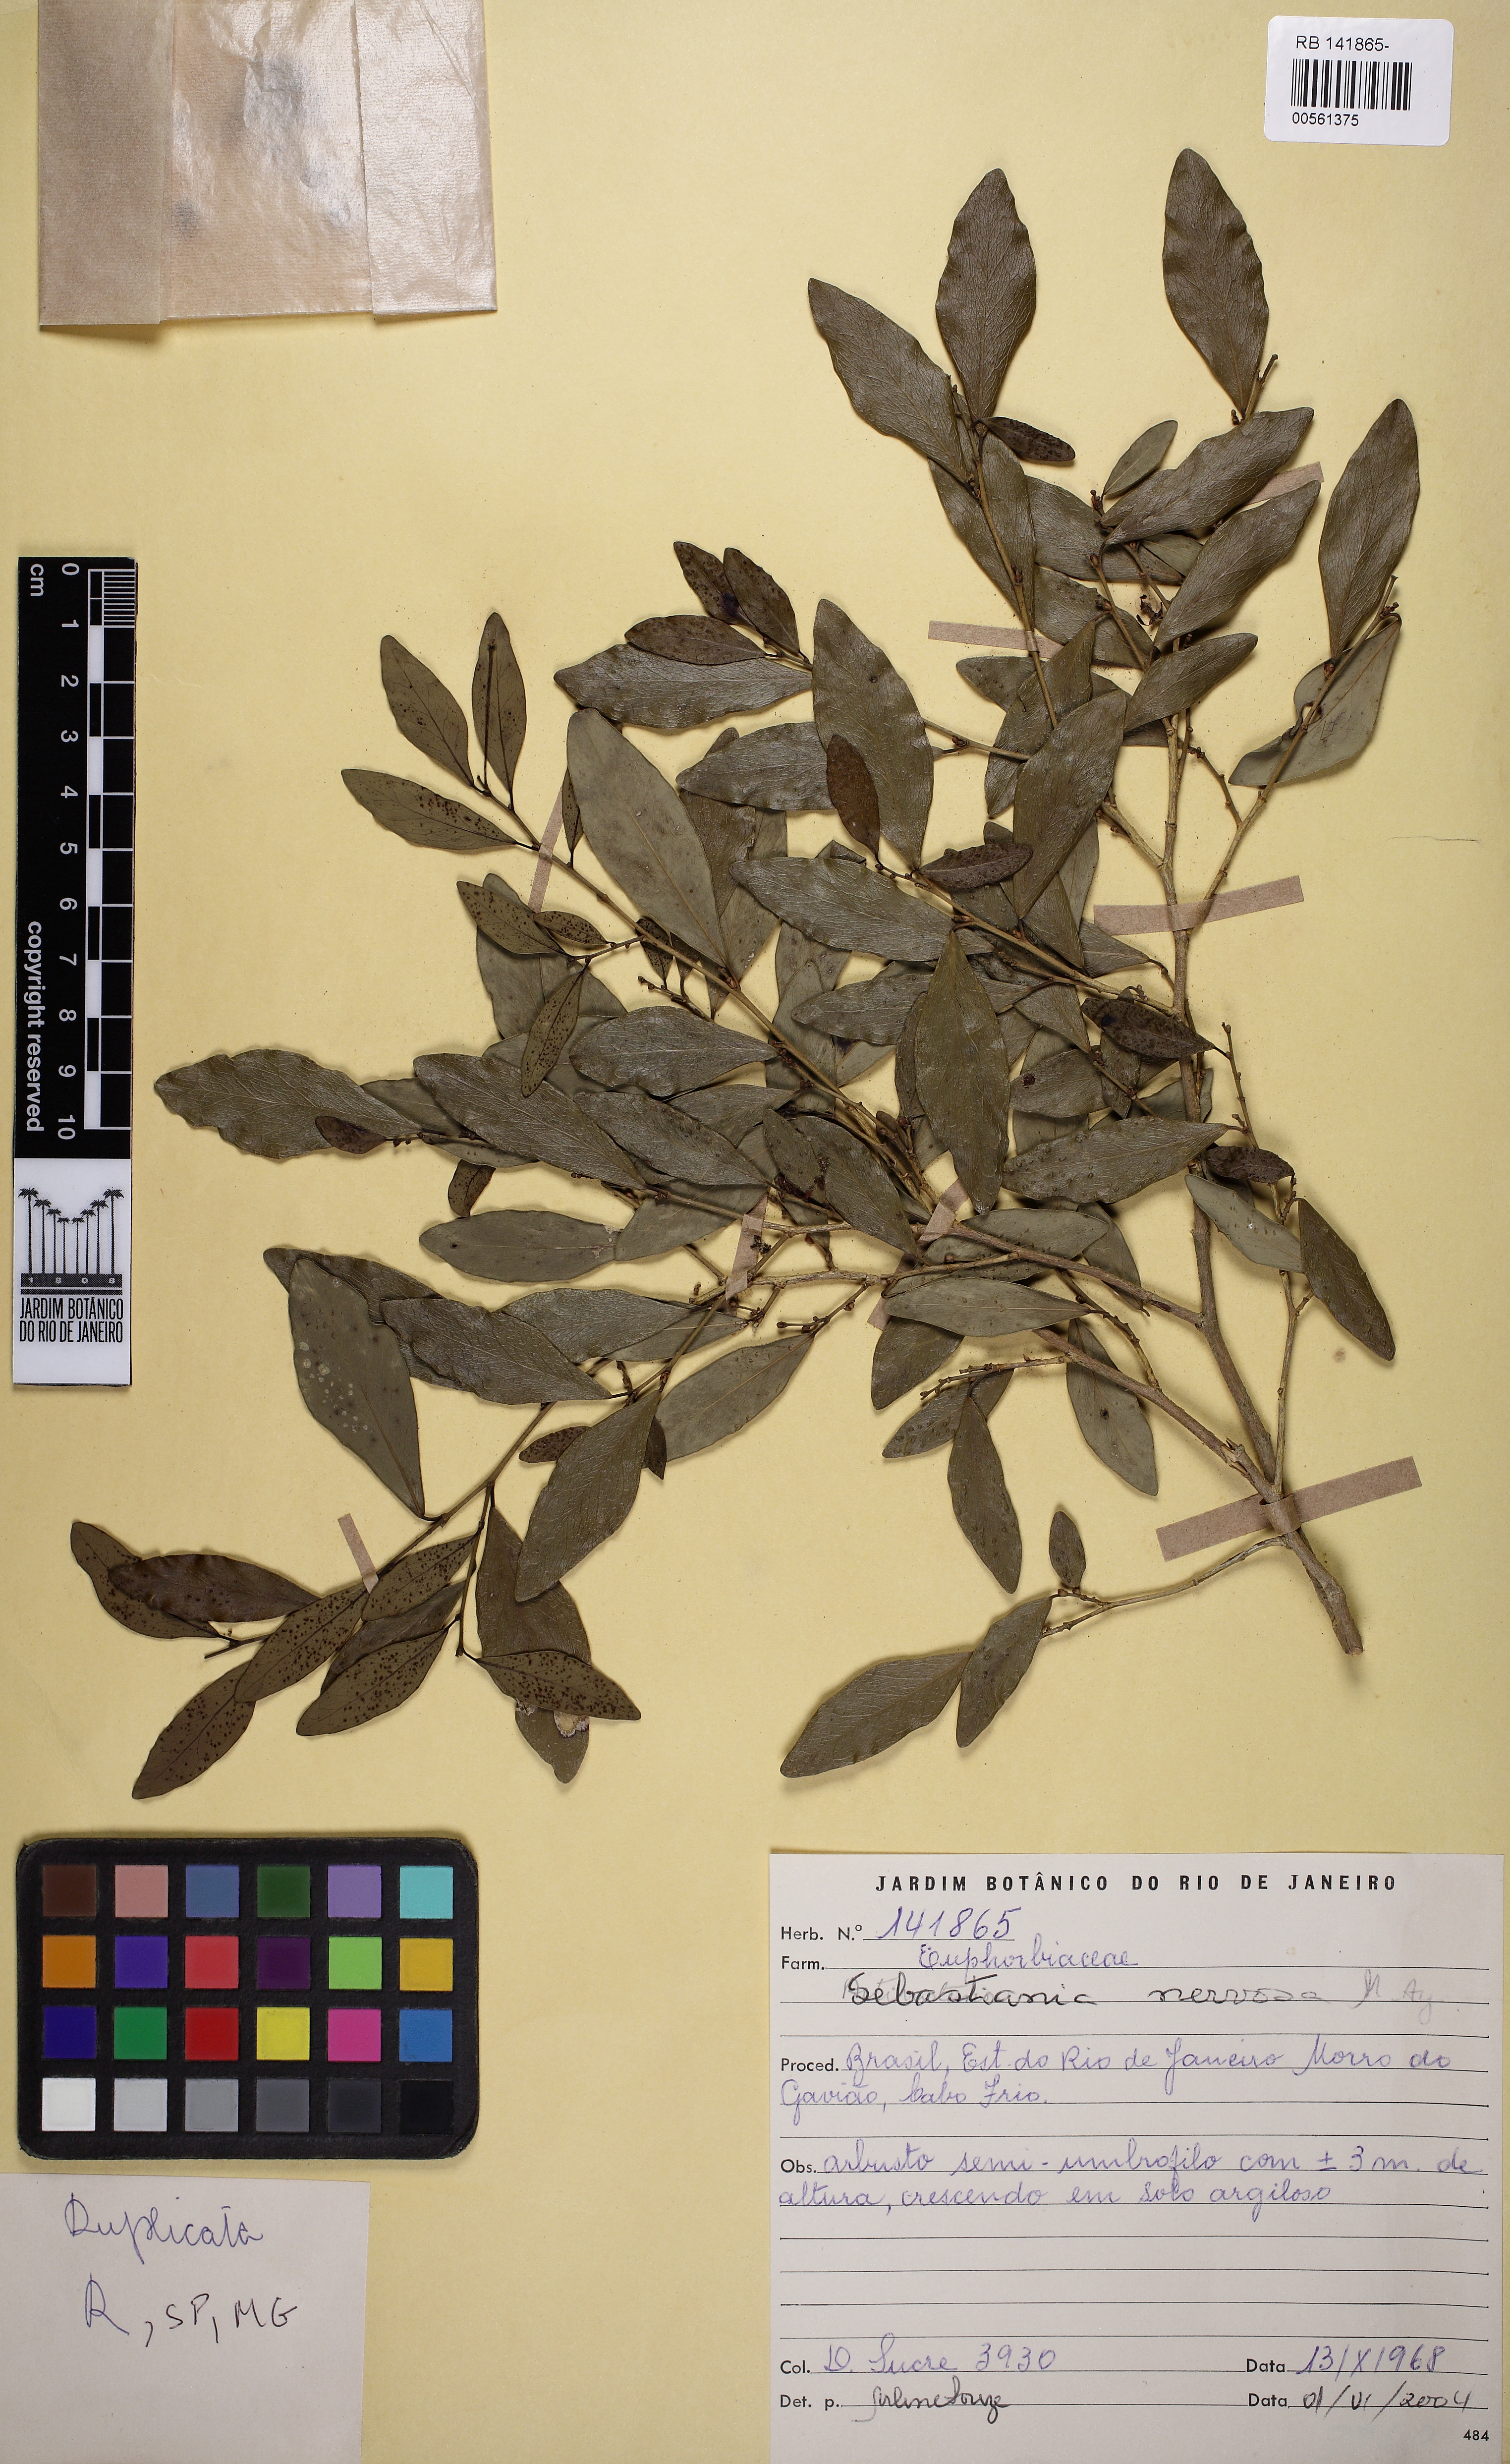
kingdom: Plantae
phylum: Tracheophyta
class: Magnoliopsida
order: Malpighiales
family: Euphorbiaceae
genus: Gymnanthes
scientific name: Gymnanthes nervosa
